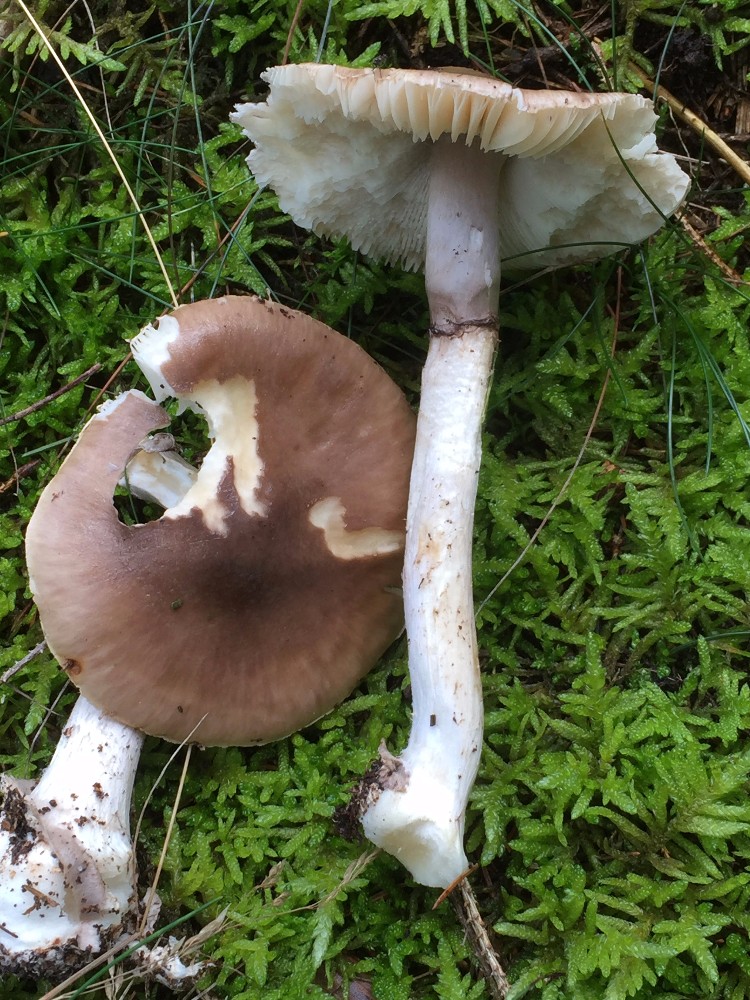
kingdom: Fungi
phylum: Basidiomycota
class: Agaricomycetes
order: Agaricales
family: Amanitaceae
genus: Amanita
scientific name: Amanita porphyria
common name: porfyr-fluesvamp
